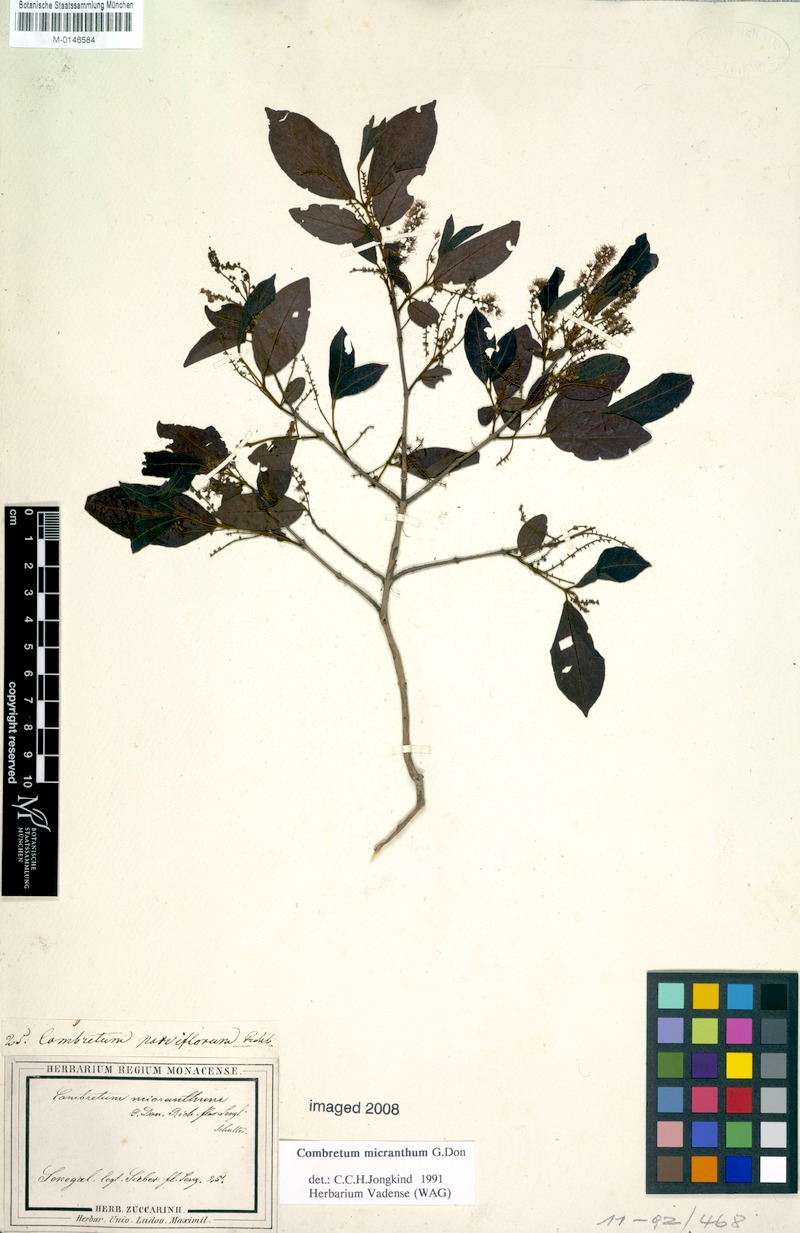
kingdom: Plantae
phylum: Tracheophyta
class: Magnoliopsida
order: Myrtales
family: Combretaceae
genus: Combretum
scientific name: Combretum micranthum
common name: Opium-antidote
